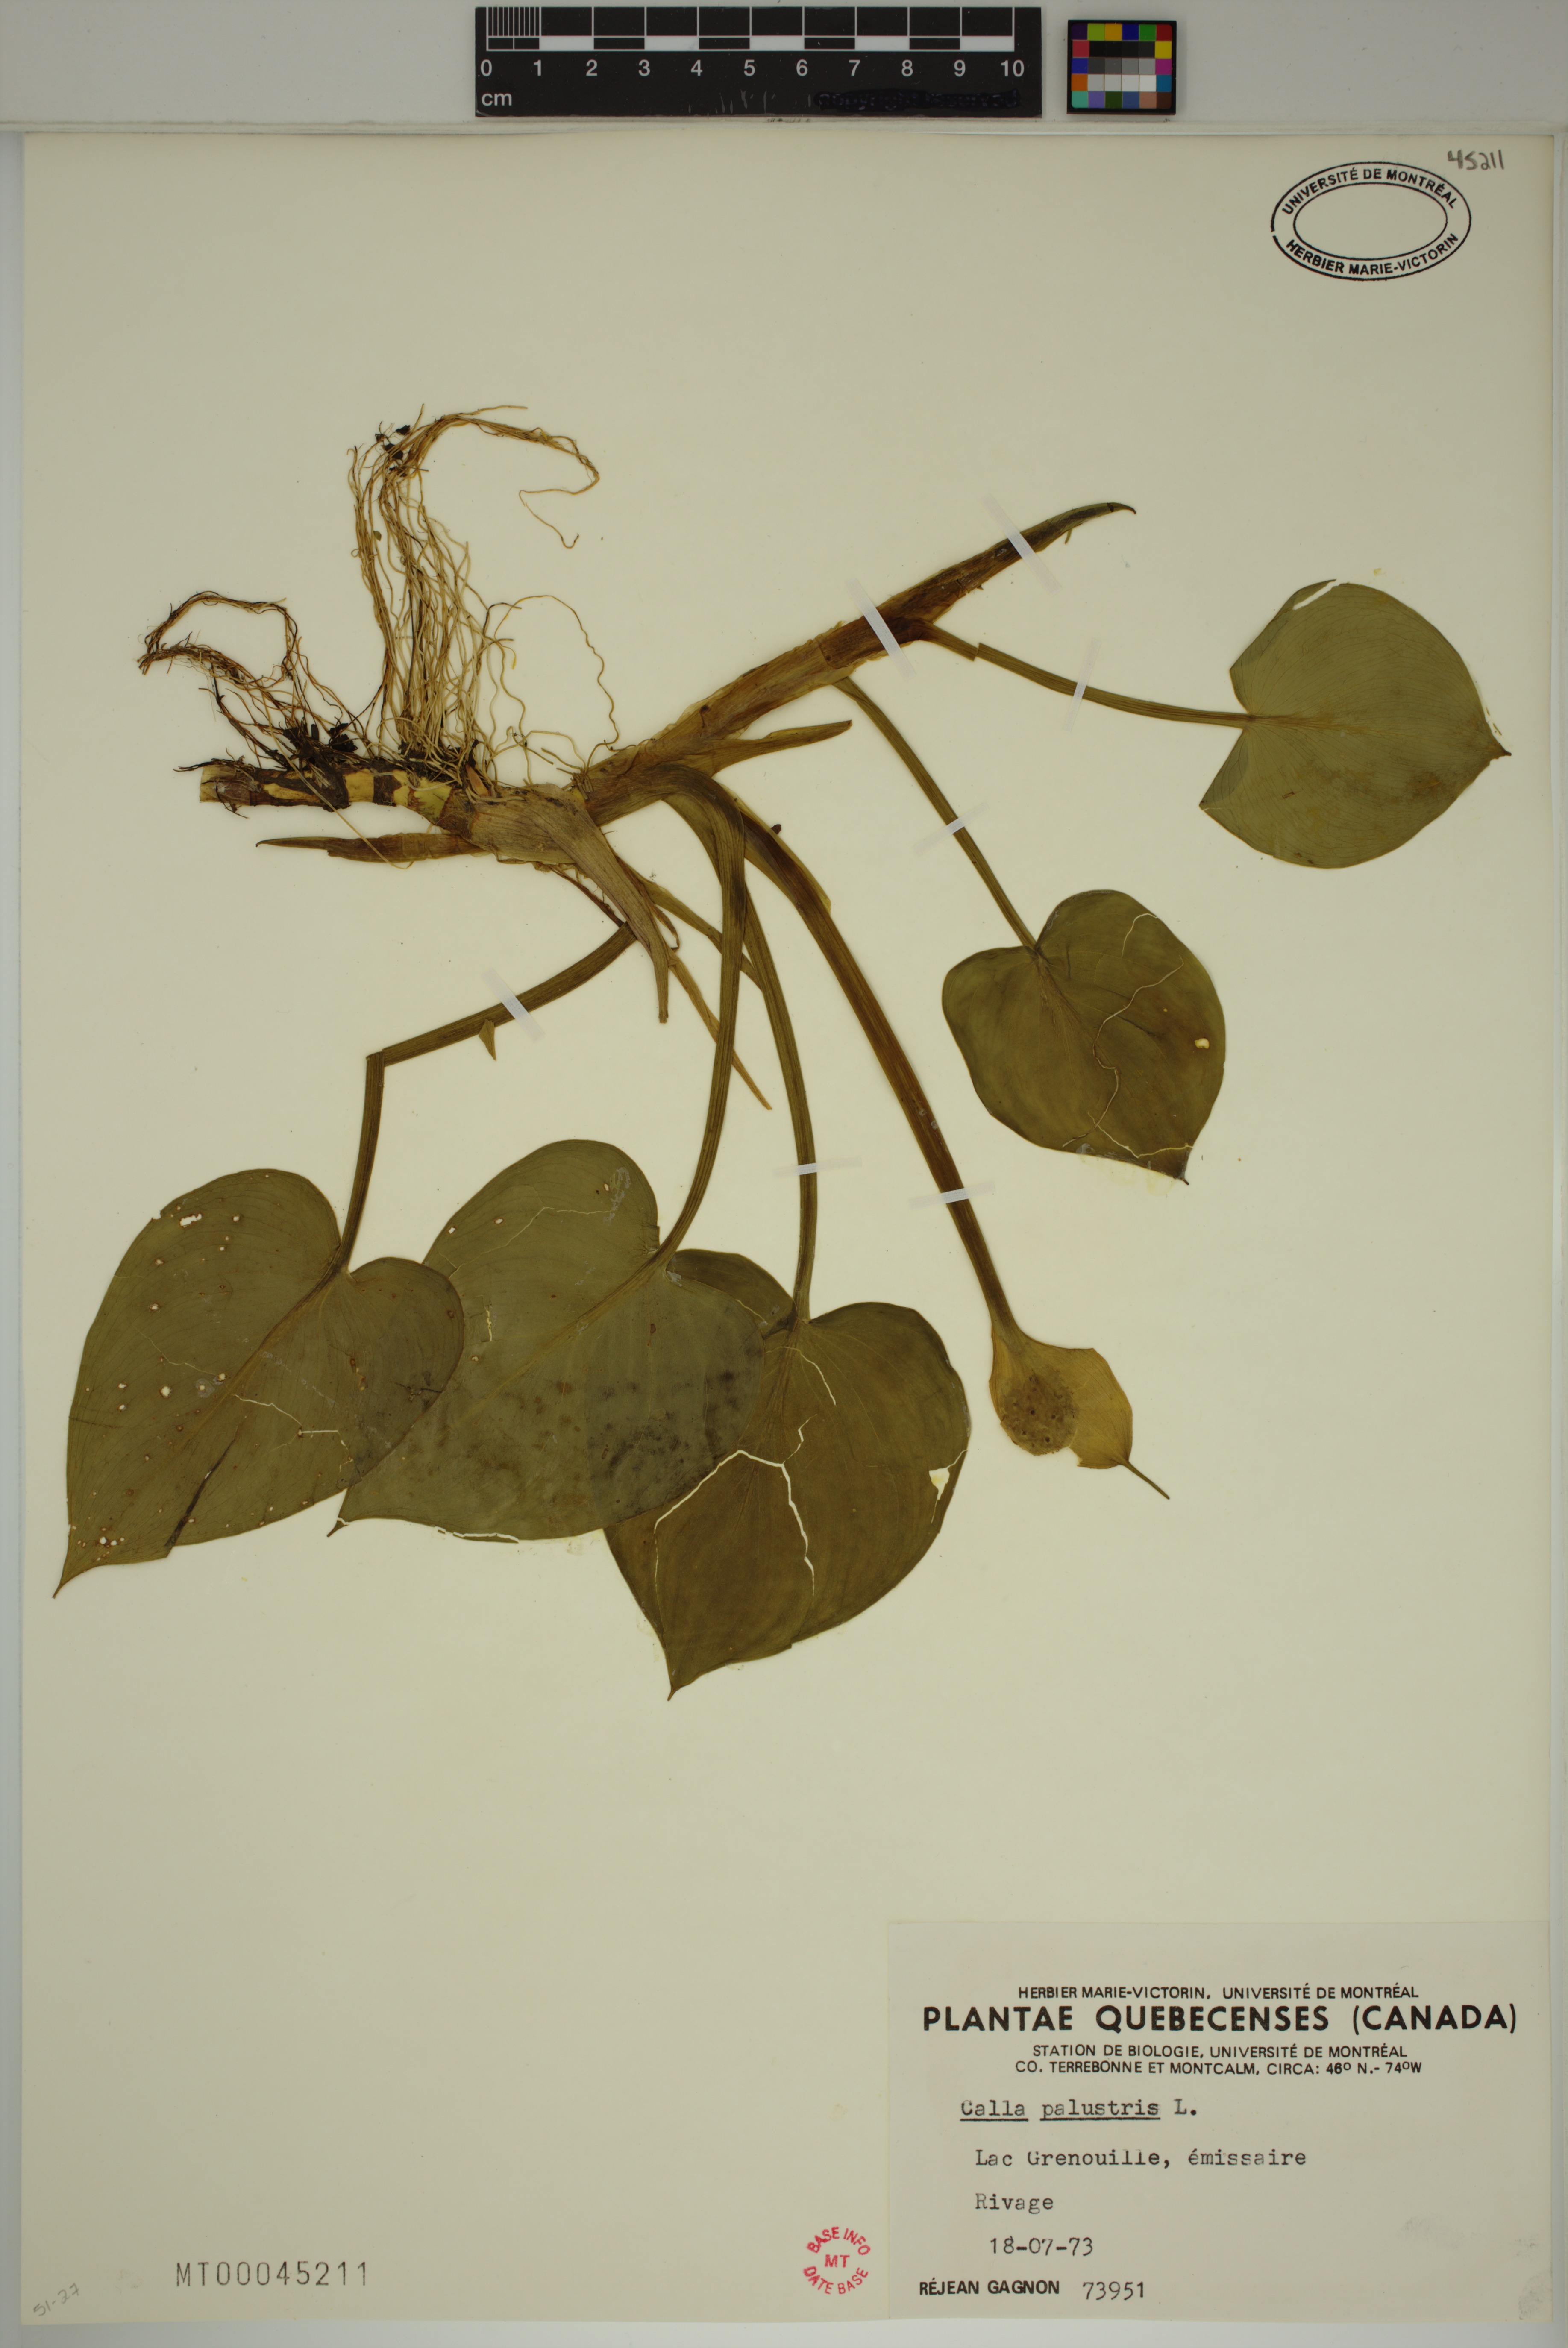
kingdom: Plantae
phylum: Tracheophyta
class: Liliopsida
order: Alismatales
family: Araceae
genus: Calla
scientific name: Calla palustris
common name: Bog arum
